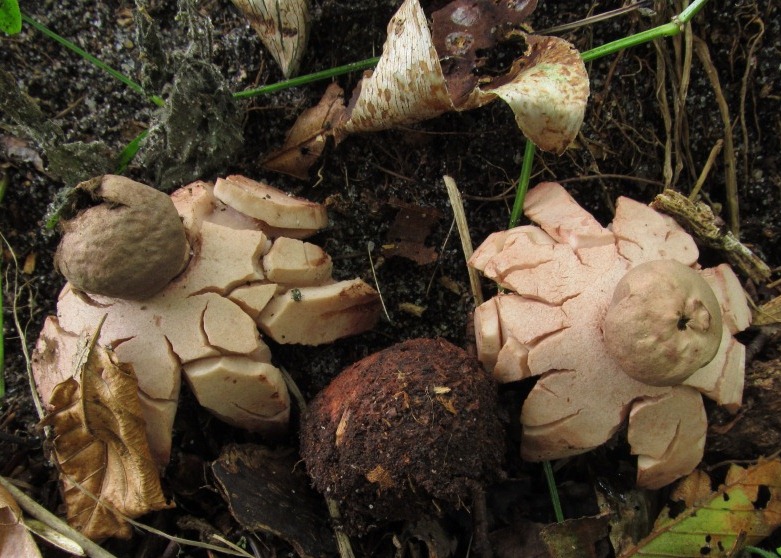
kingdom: Fungi
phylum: Basidiomycota
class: Agaricomycetes
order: Geastrales
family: Geastraceae
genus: Geastrum
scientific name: Geastrum rufescens
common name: kødfarvet stjernebold
